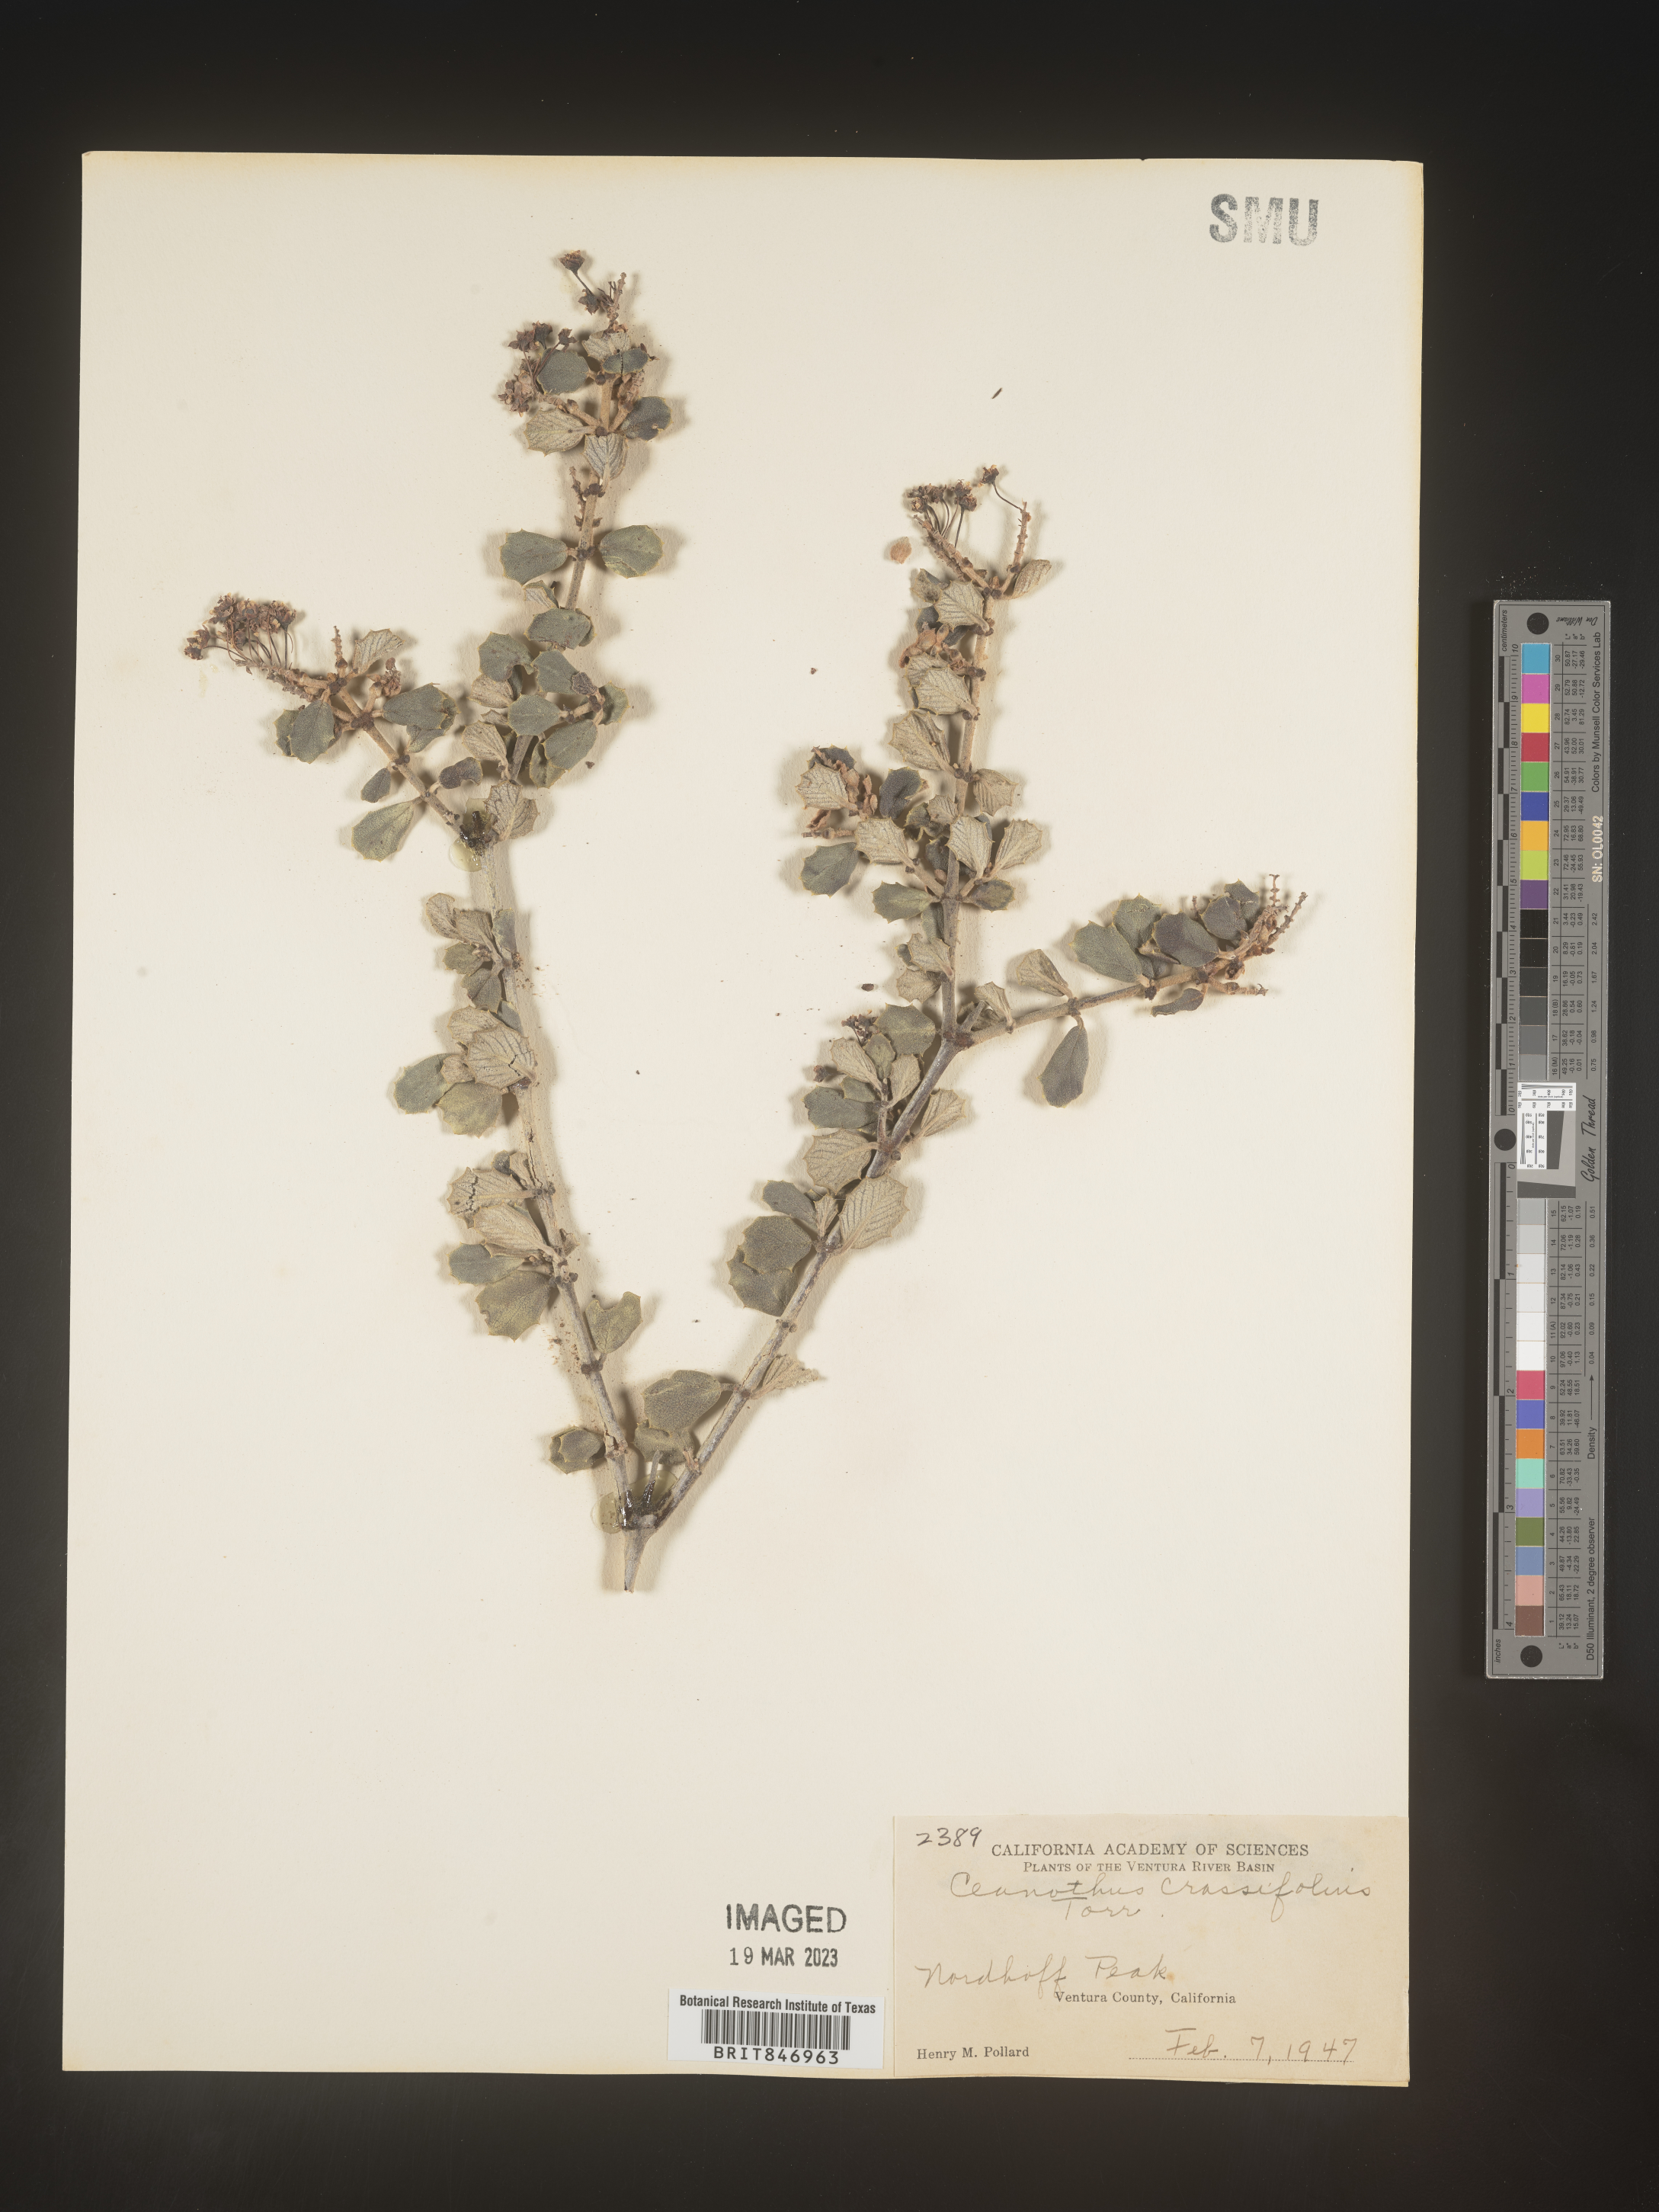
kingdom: Plantae
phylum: Tracheophyta
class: Magnoliopsida
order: Rosales
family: Rhamnaceae
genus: Ceanothus
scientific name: Ceanothus crassifolius
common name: Hoaryleaf ceanothus
